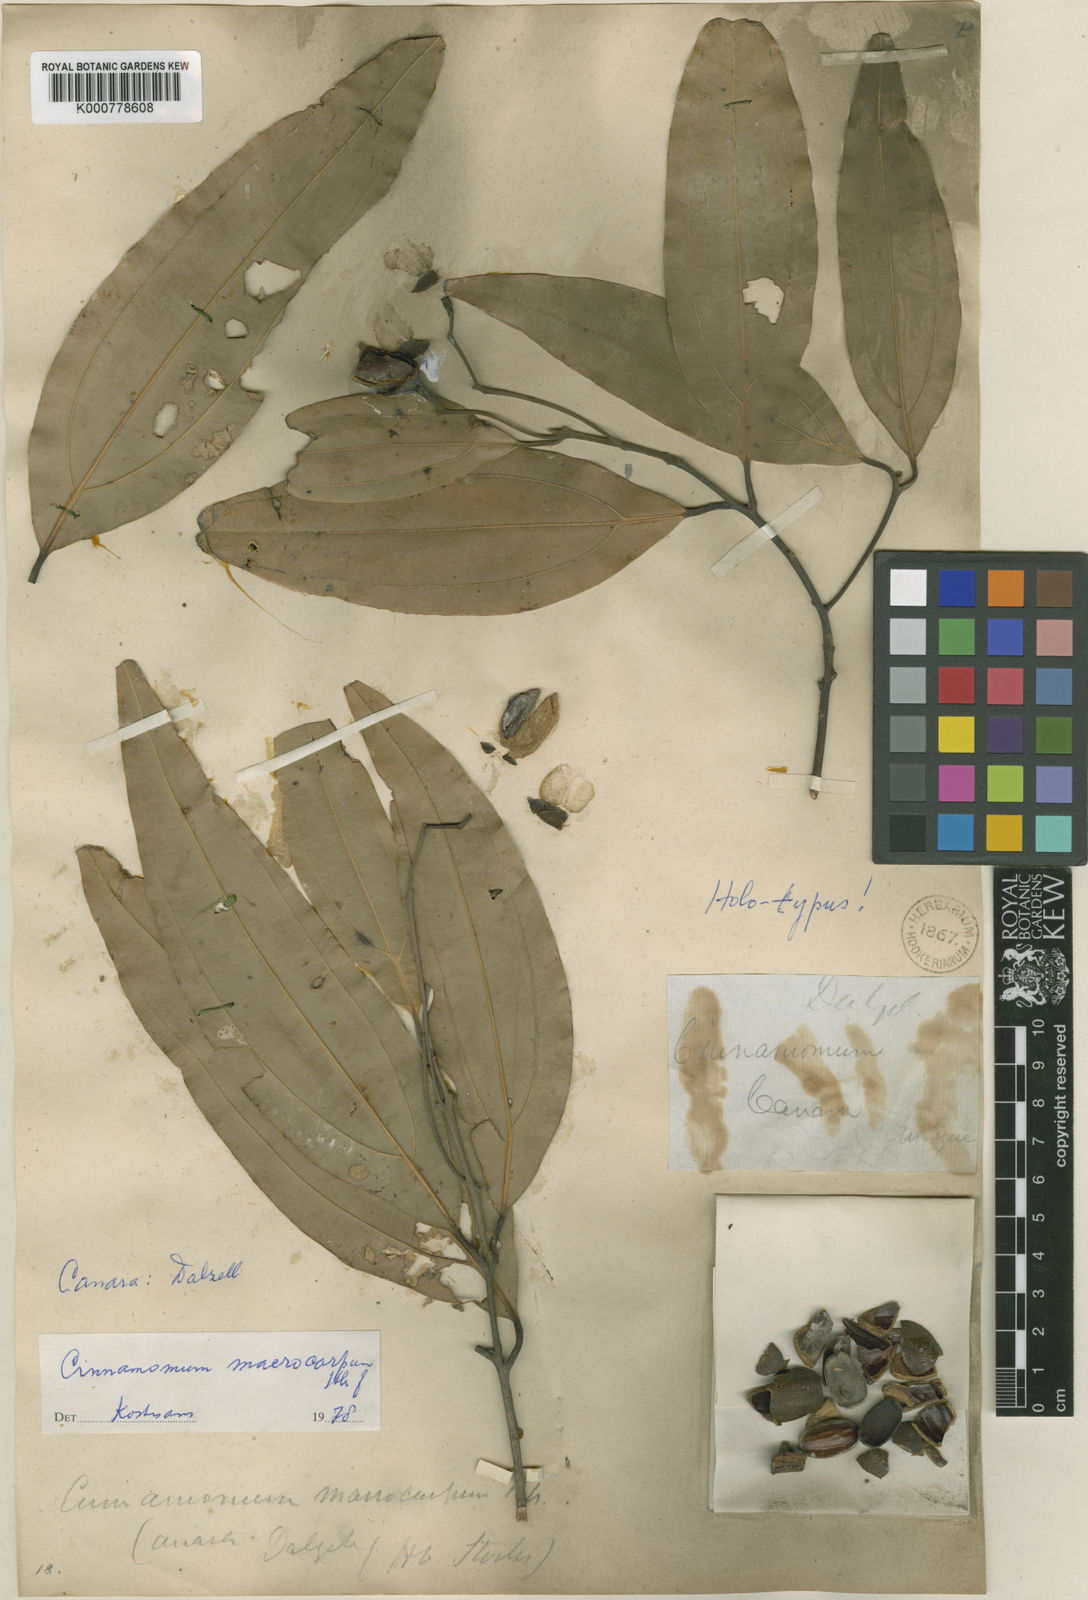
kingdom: Plantae
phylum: Tracheophyta
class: Magnoliopsida
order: Laurales
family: Lauraceae
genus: Cinnamomum
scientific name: Cinnamomum macrocarpum
